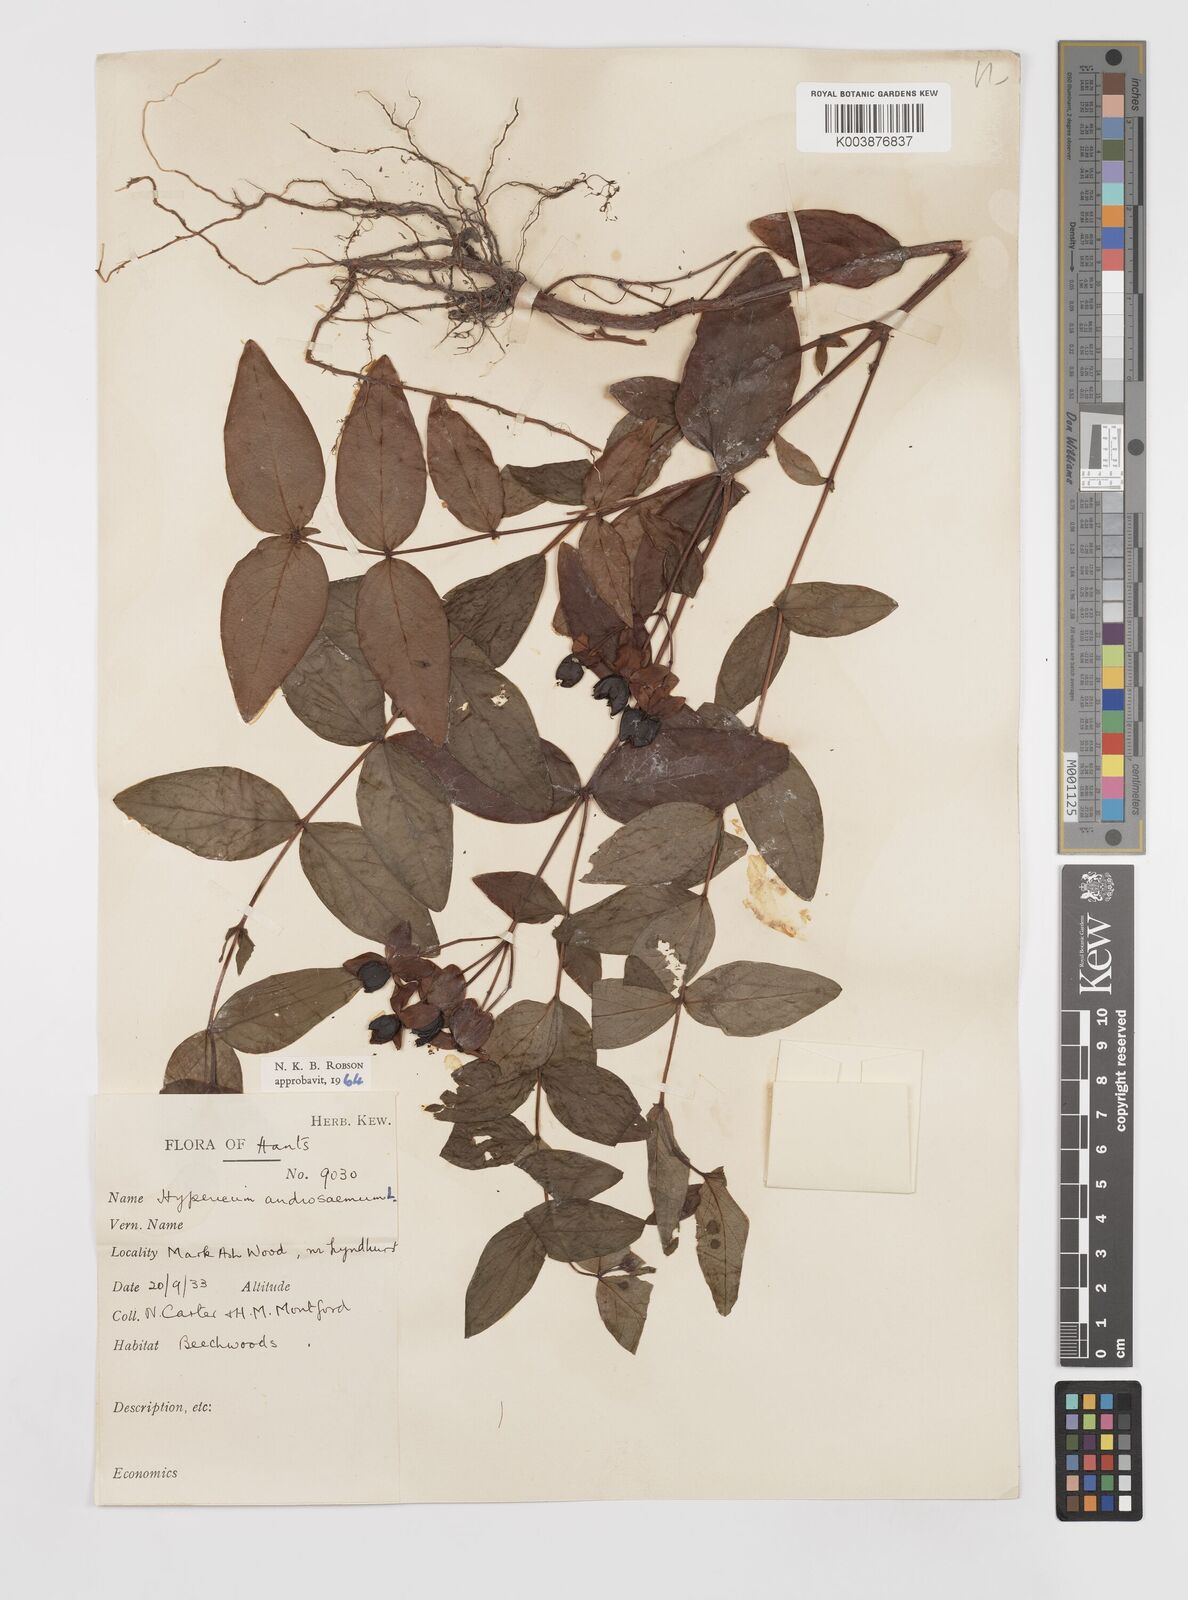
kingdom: Plantae
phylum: Tracheophyta
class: Magnoliopsida
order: Malpighiales
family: Hypericaceae
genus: Hypericum
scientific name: Hypericum androsaemum
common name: Sweet-amber
